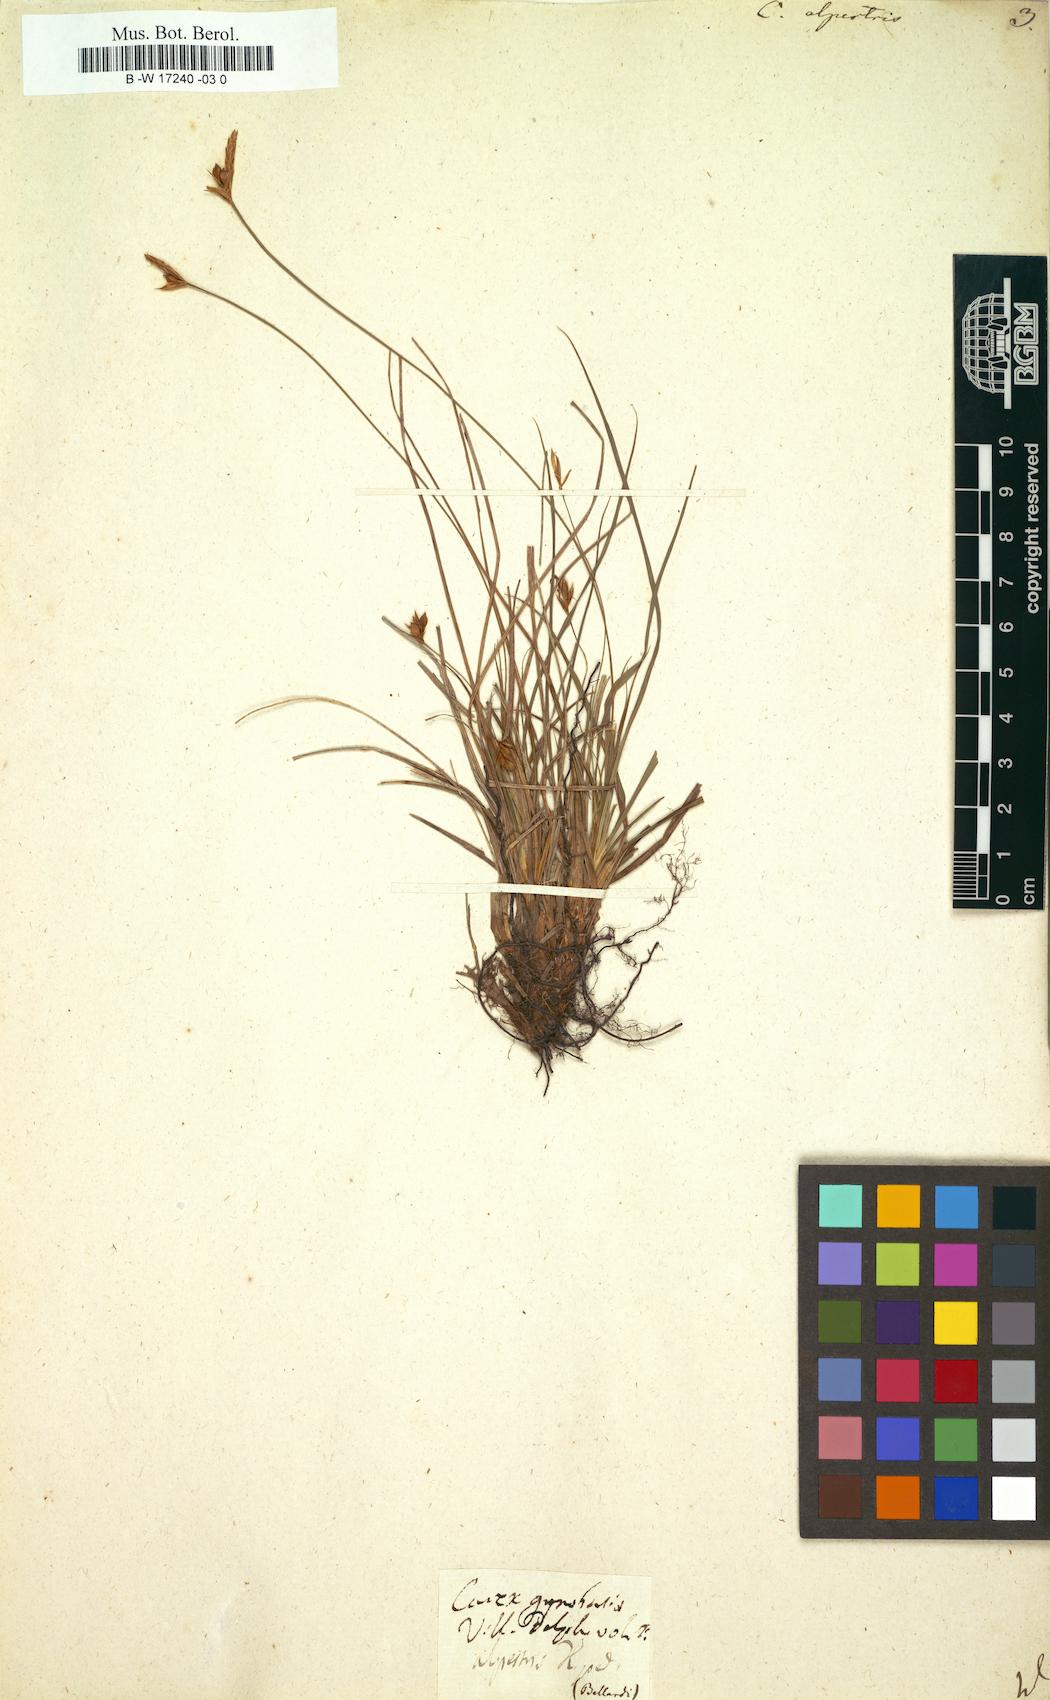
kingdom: Plantae
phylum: Tracheophyta
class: Liliopsida
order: Poales
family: Cyperaceae
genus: Carex
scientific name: Carex halleriana
